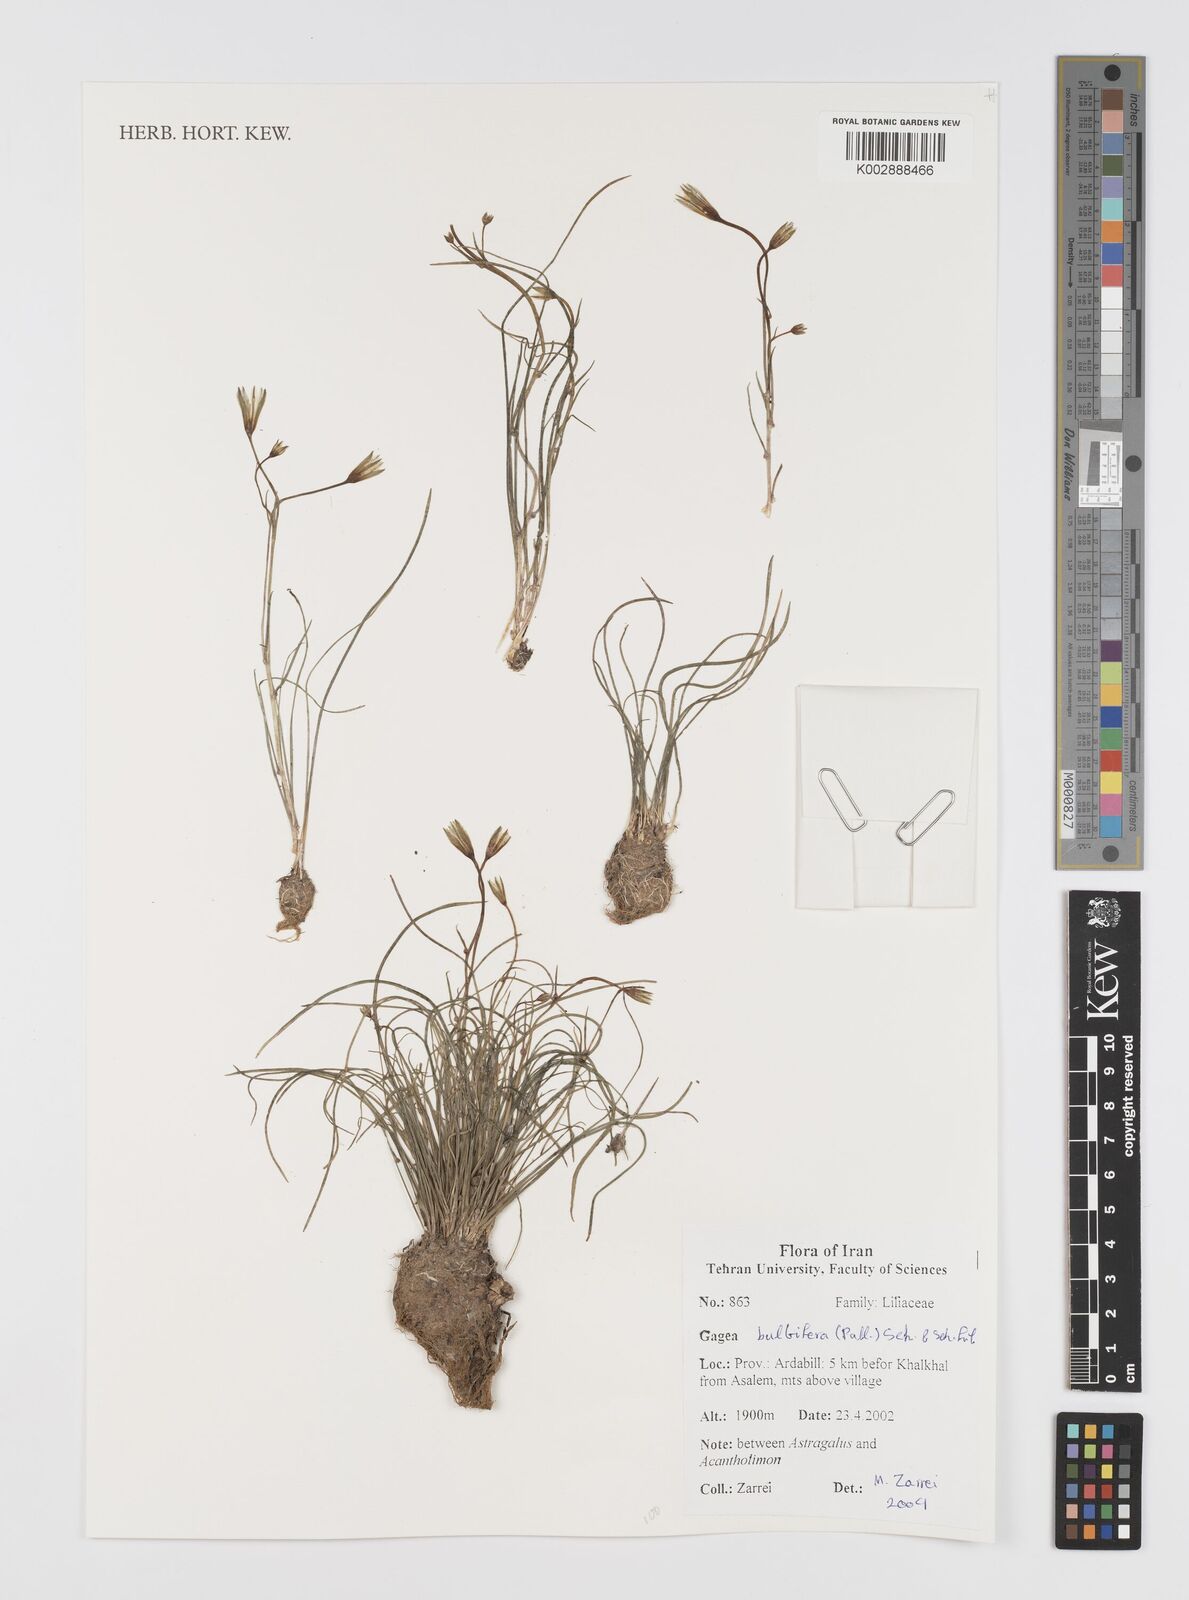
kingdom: Plantae
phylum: Tracheophyta
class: Liliopsida
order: Liliales
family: Liliaceae
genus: Gagea
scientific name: Gagea bulbifera
